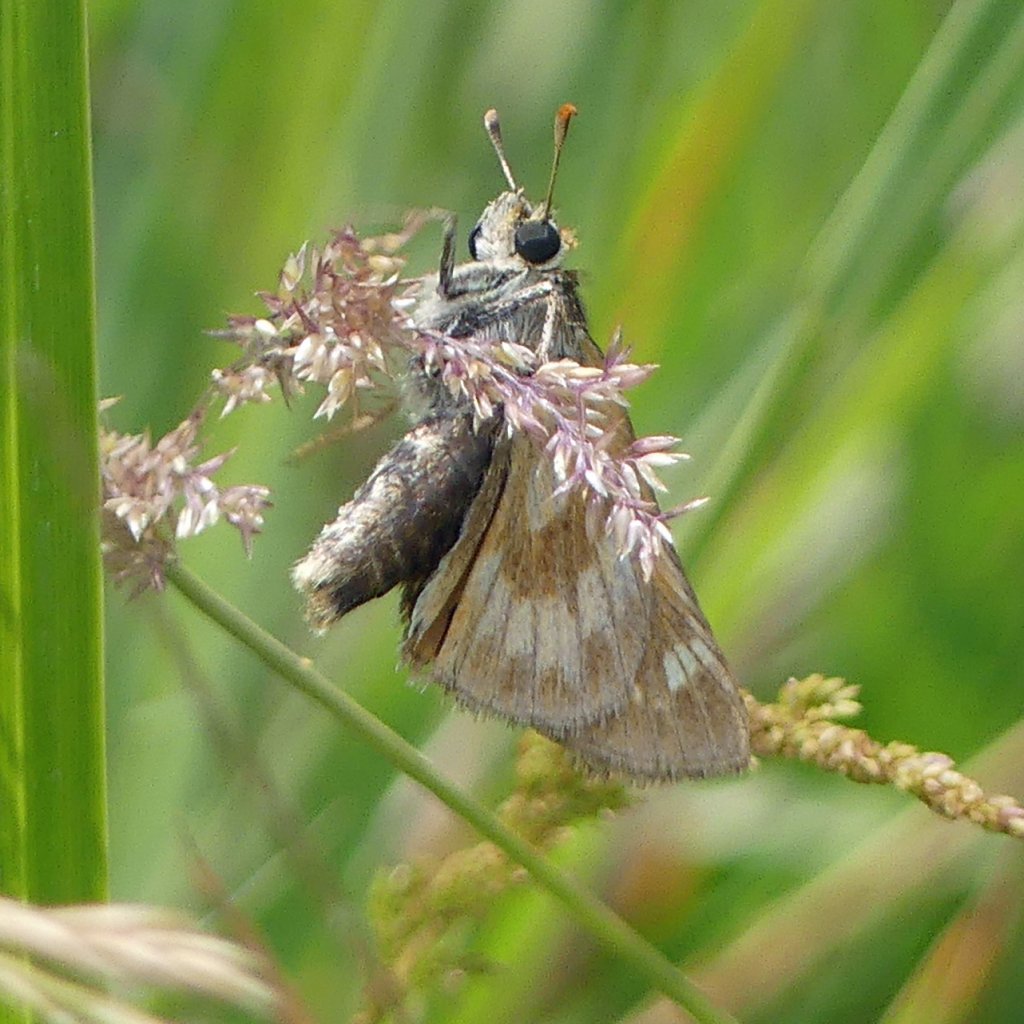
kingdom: Animalia
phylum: Arthropoda
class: Insecta
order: Lepidoptera
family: Hesperiidae
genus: Polites
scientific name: Polites
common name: Long Dash Skipper
